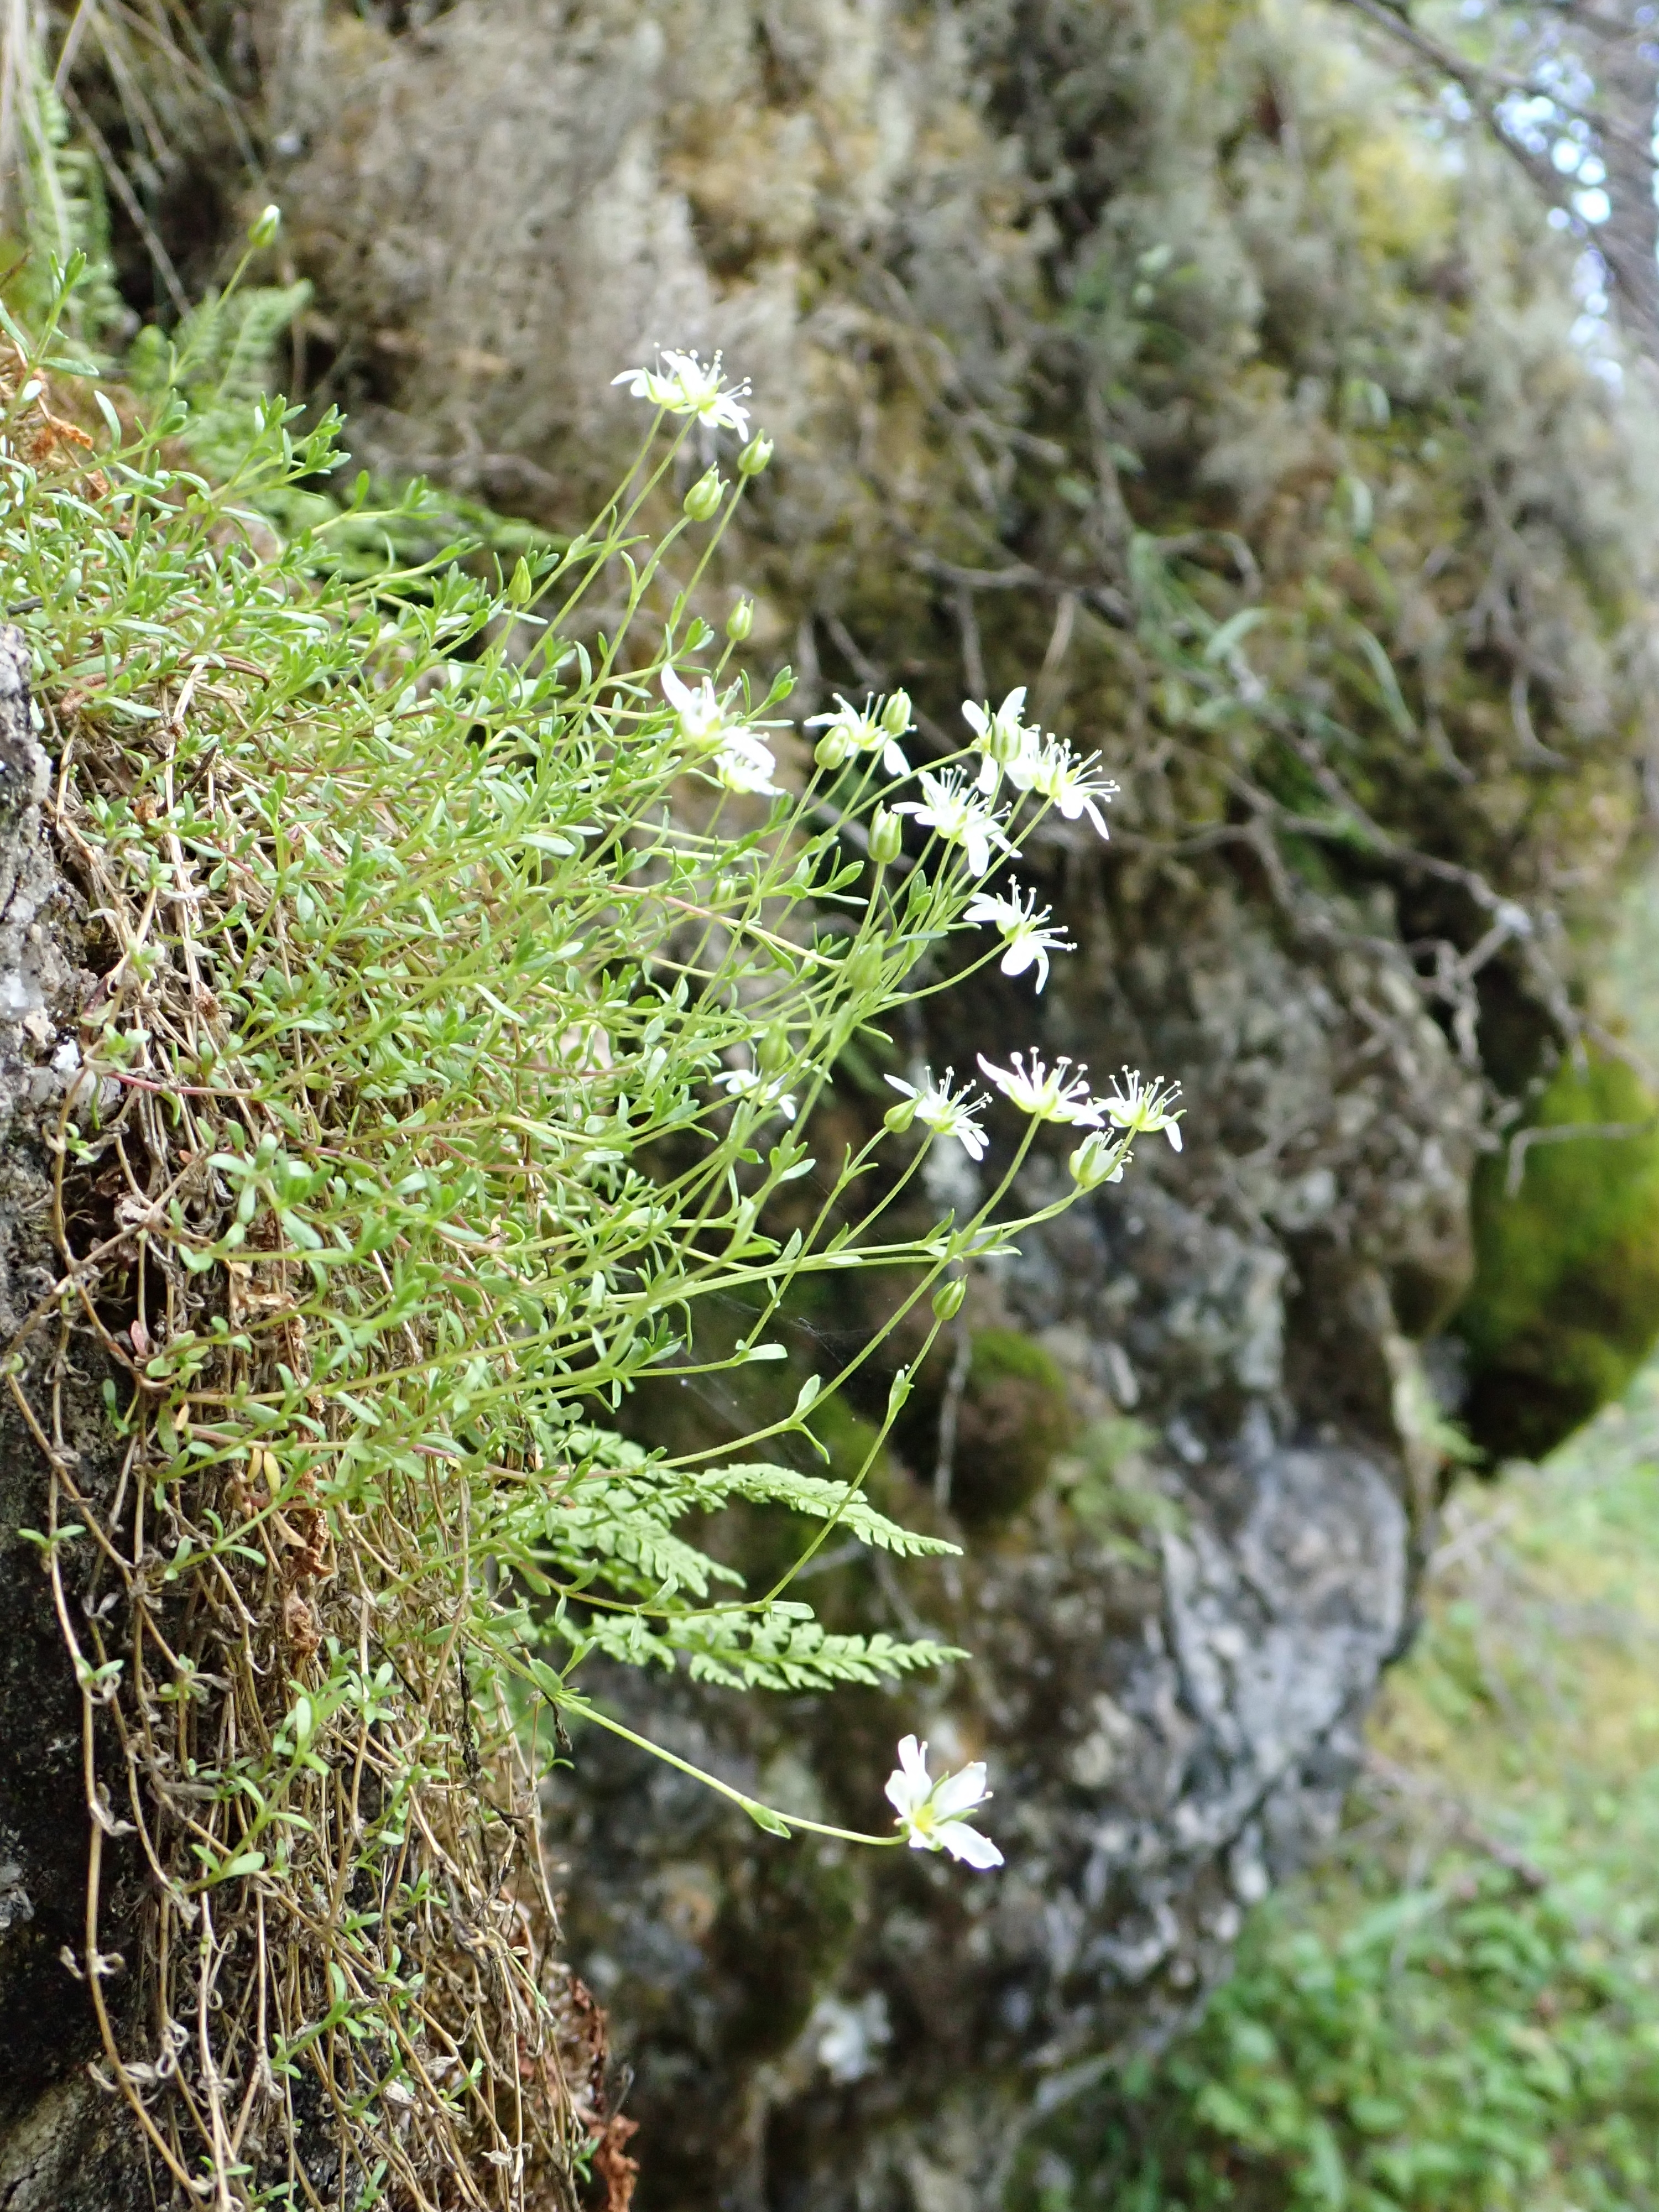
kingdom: Plantae
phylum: Tracheophyta
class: Magnoliopsida
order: Caryophyllales
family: Caryophyllaceae
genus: Arenaria
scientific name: Arenaria pseudofrigida
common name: Tundra sandwort
